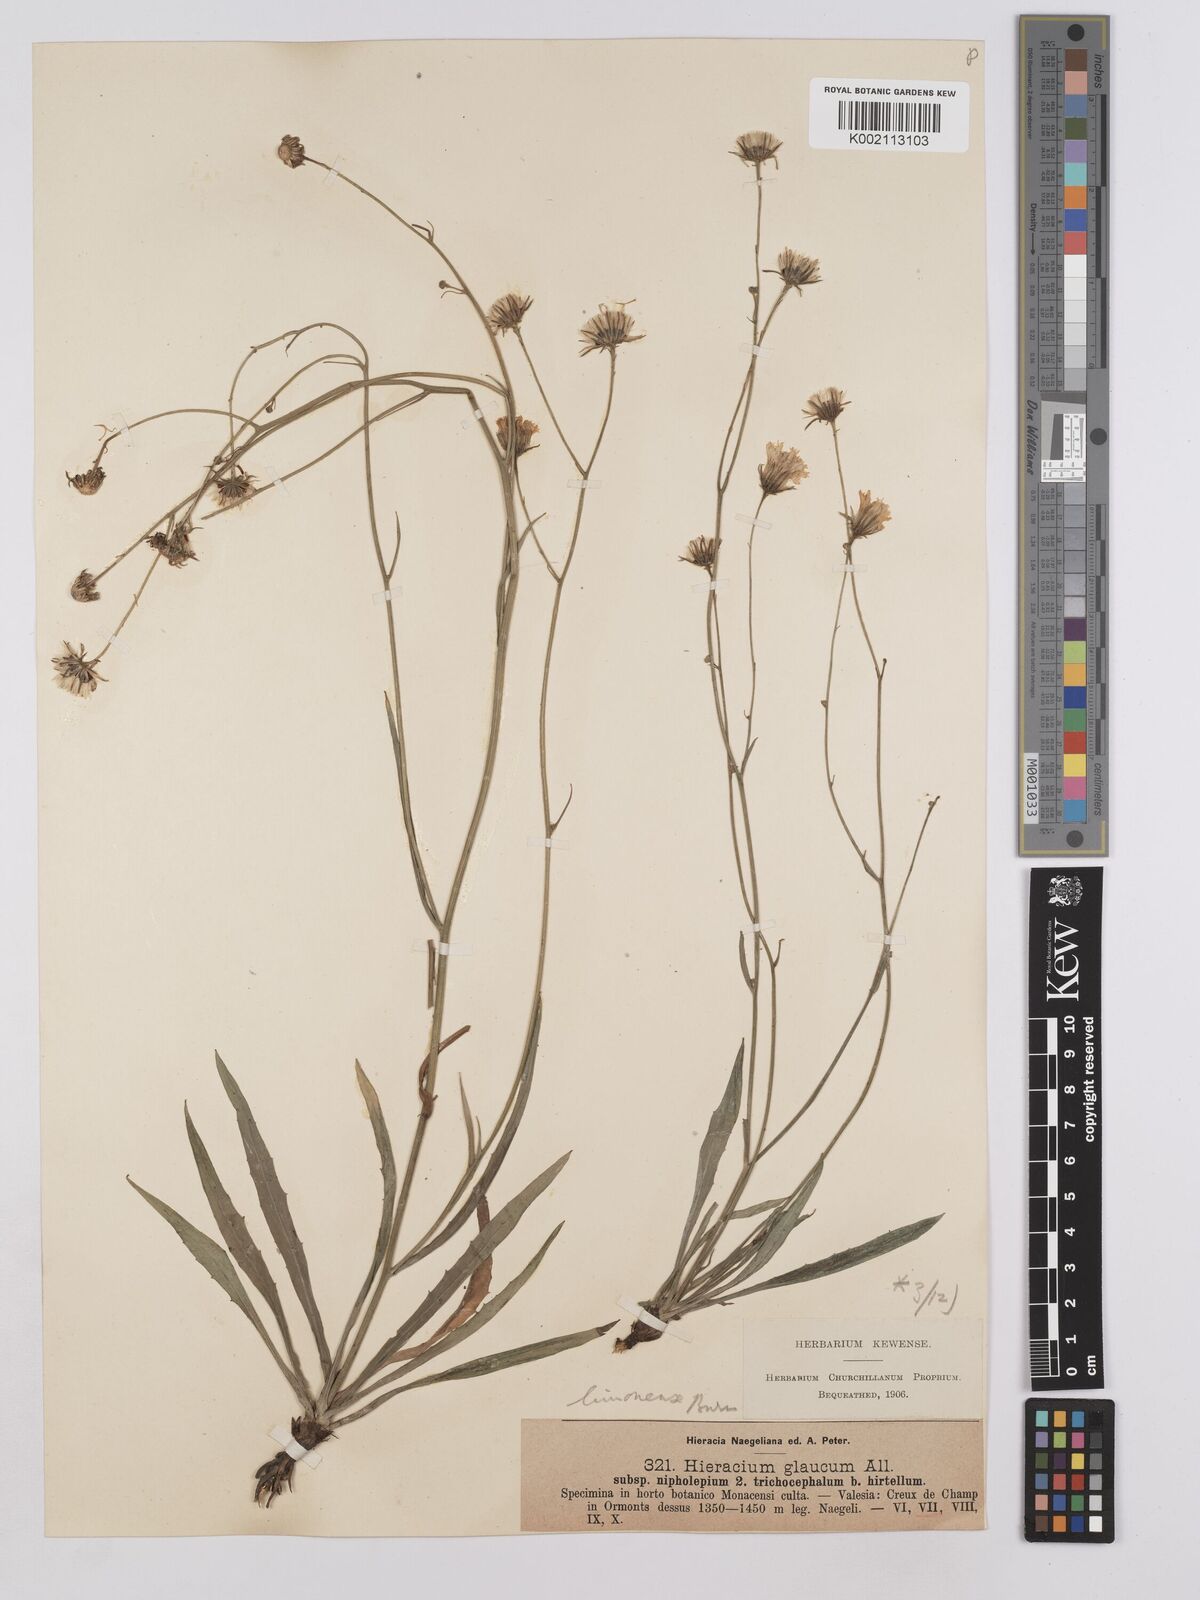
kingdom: Plantae
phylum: Tracheophyta
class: Magnoliopsida
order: Asterales
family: Asteraceae
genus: Hieracium
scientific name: Hieracium glaucum
